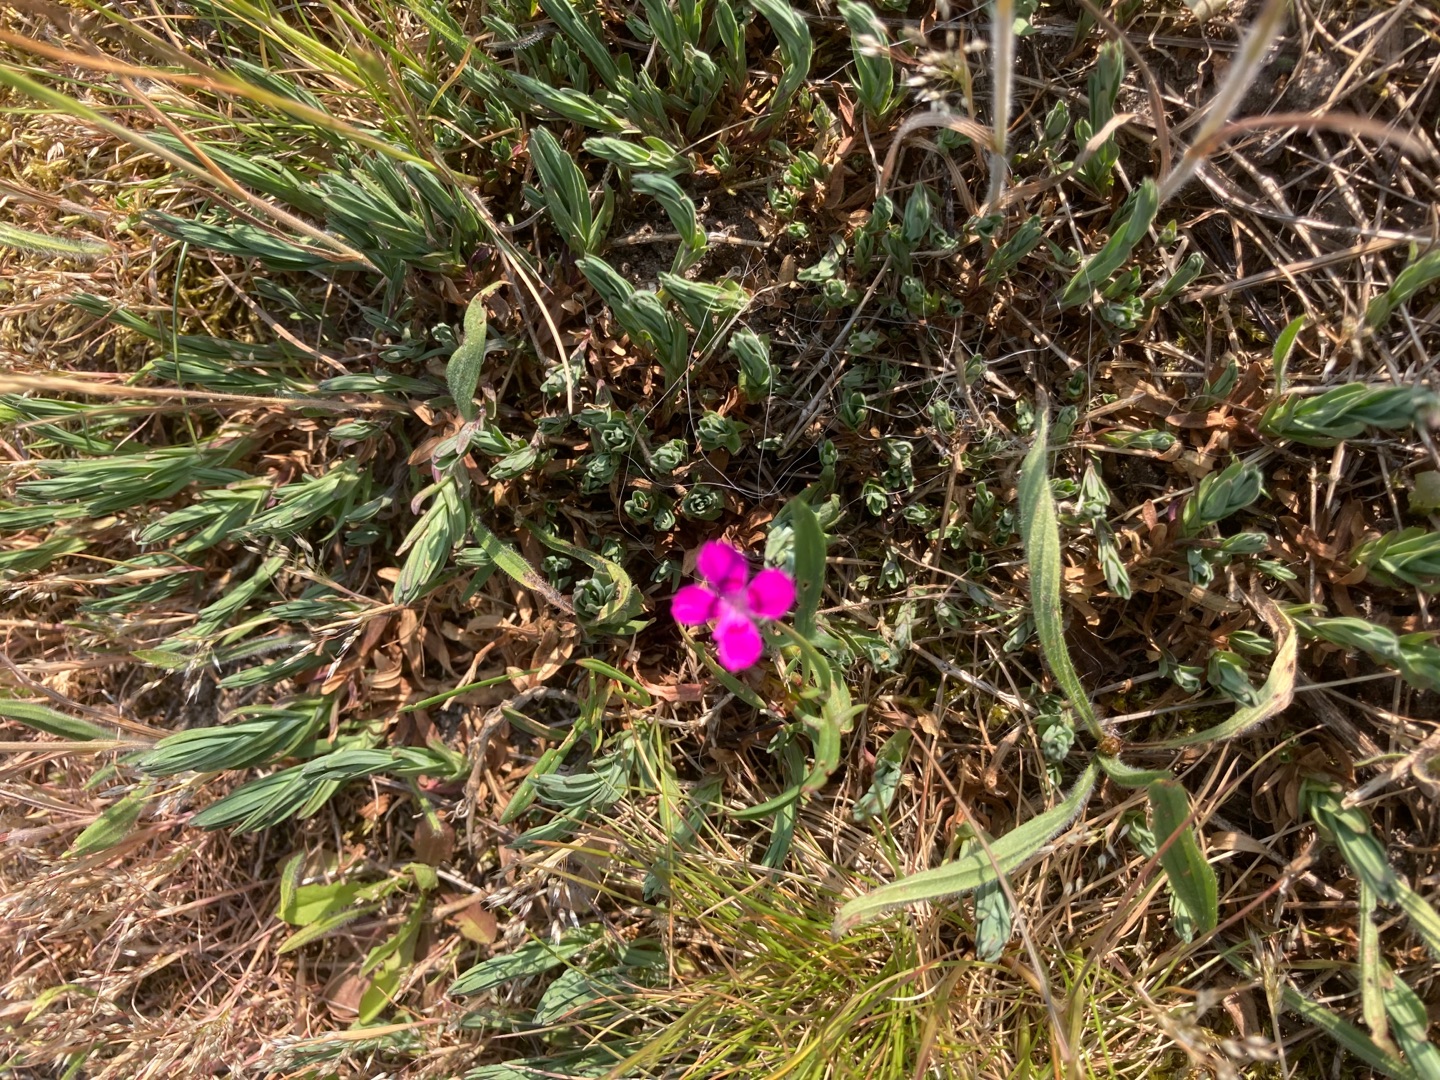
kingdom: Plantae
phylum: Tracheophyta
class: Magnoliopsida
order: Caryophyllales
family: Caryophyllaceae
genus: Dianthus
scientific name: Dianthus deltoides
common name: Bakke-nellike
